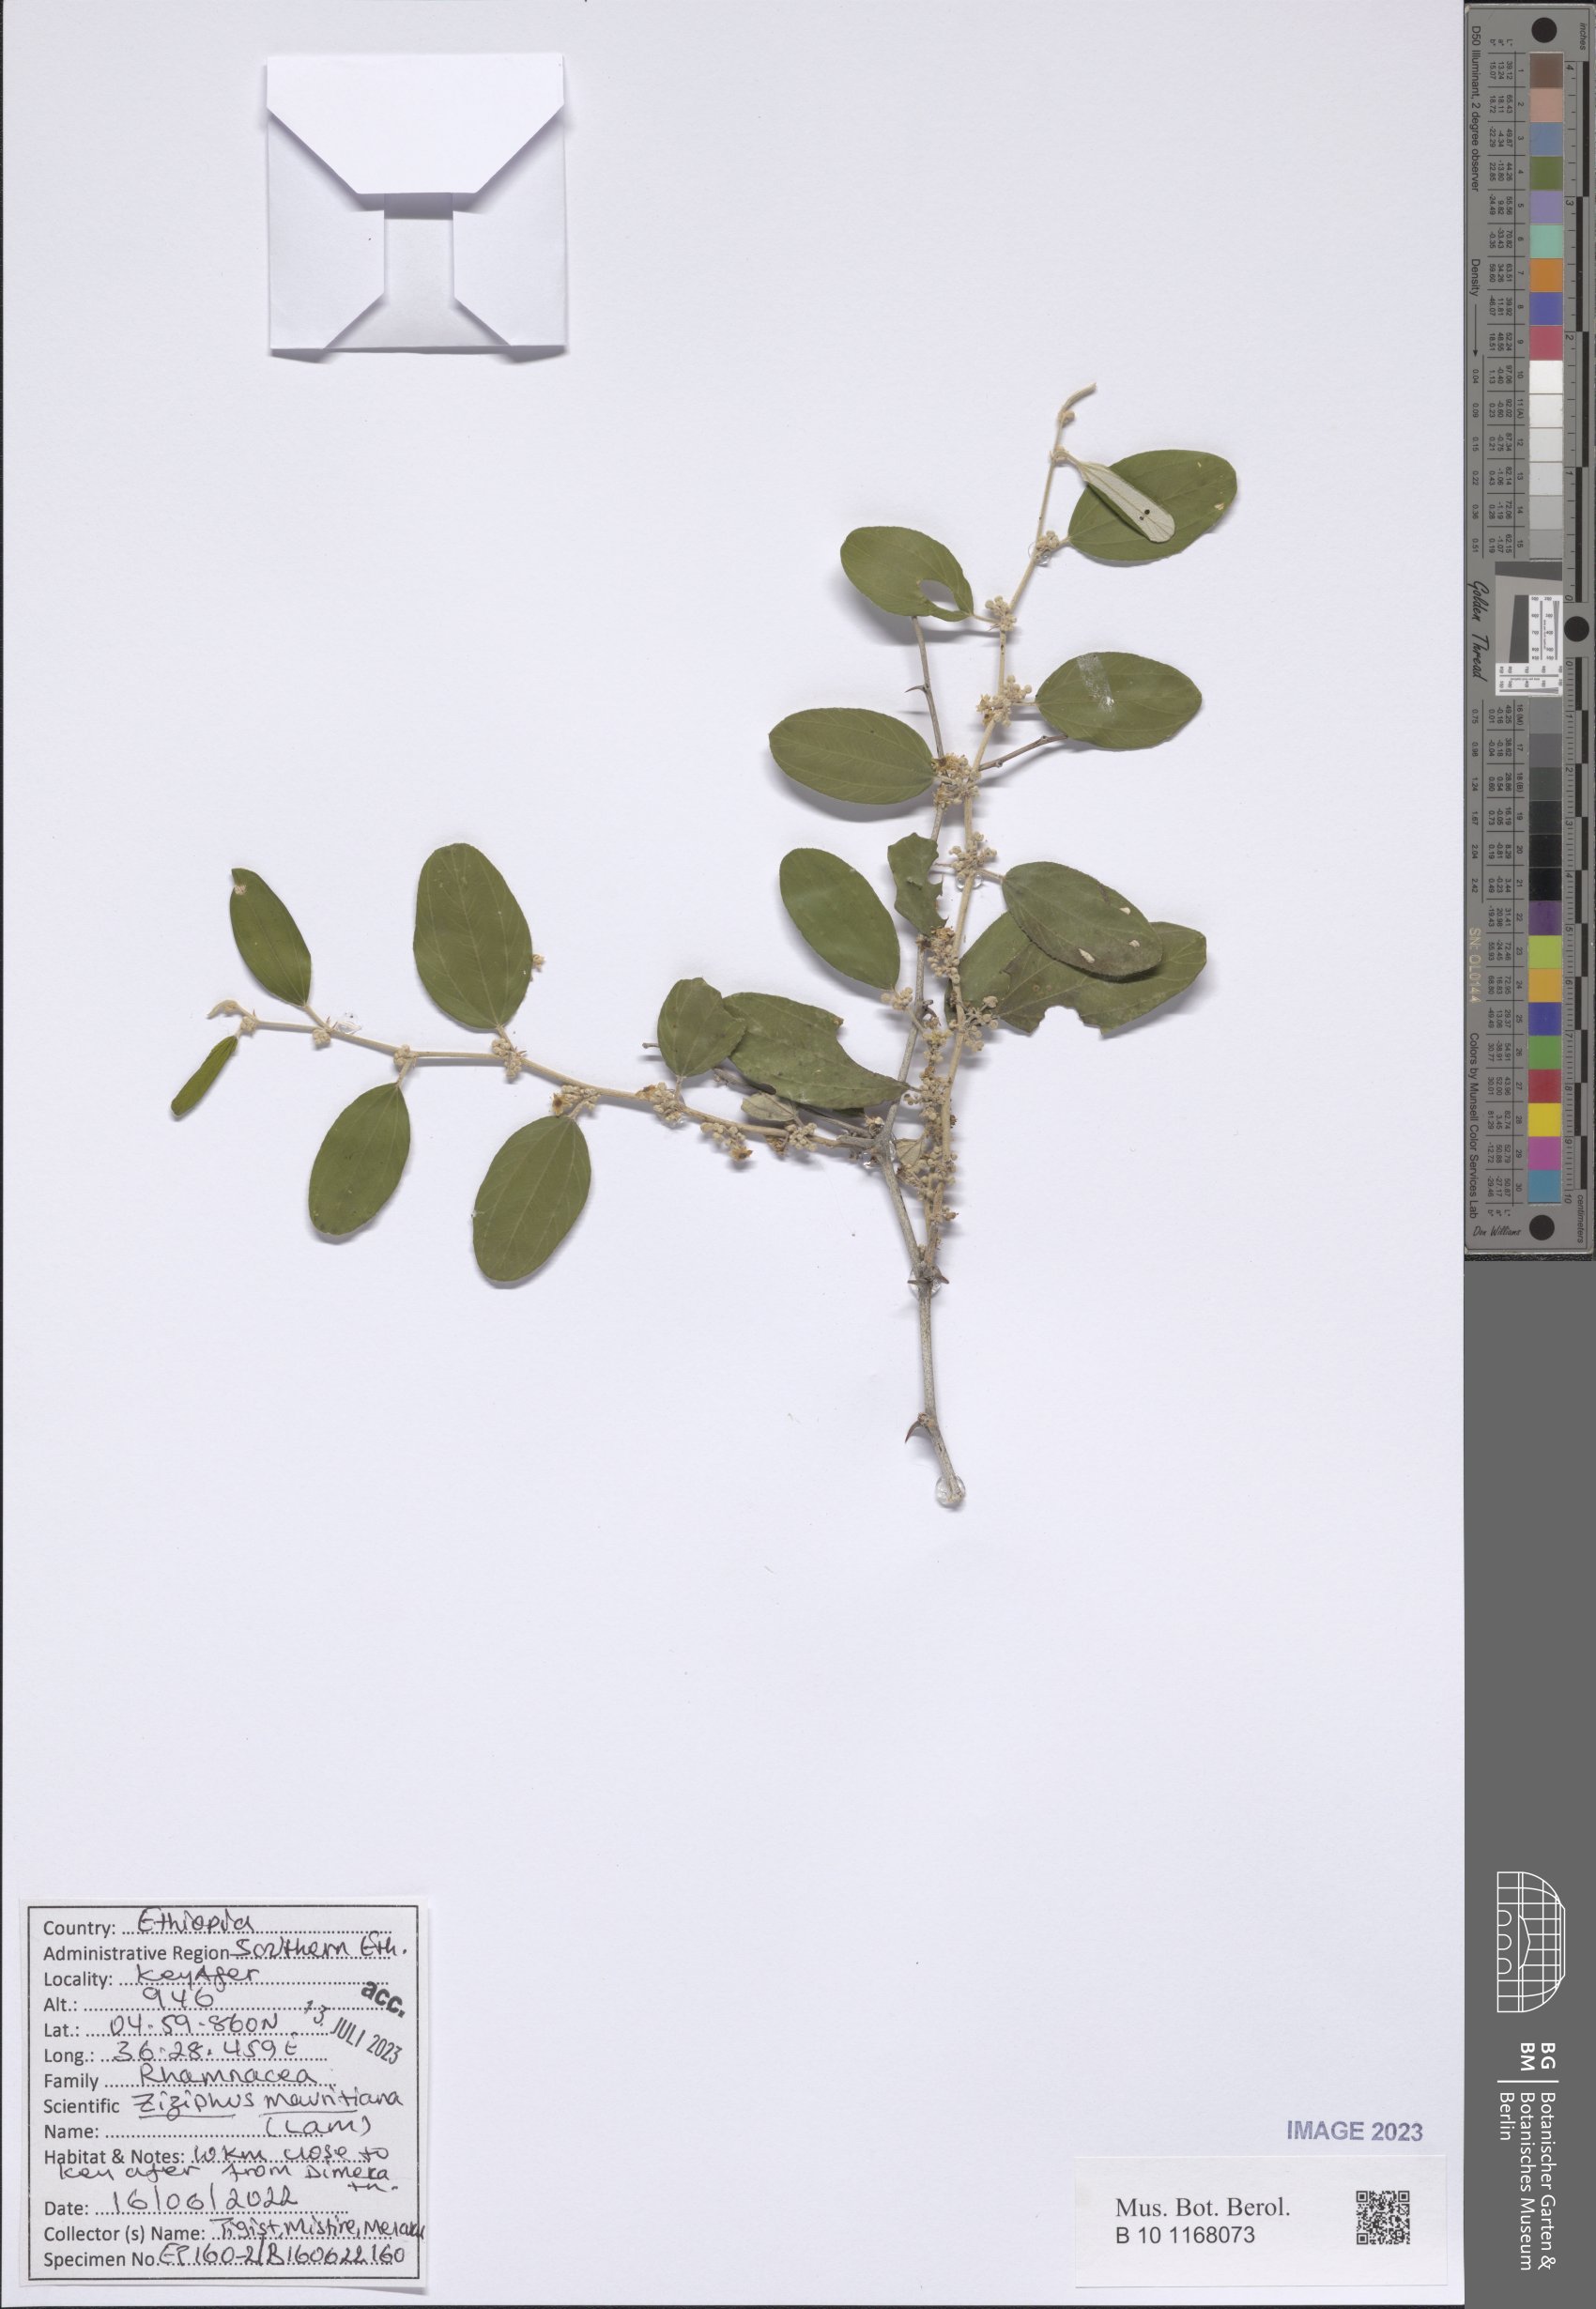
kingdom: Plantae
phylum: Tracheophyta
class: Magnoliopsida
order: Rosales
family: Rhamnaceae
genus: Ziziphus
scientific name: Ziziphus mauritiana
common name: Indian jujube
